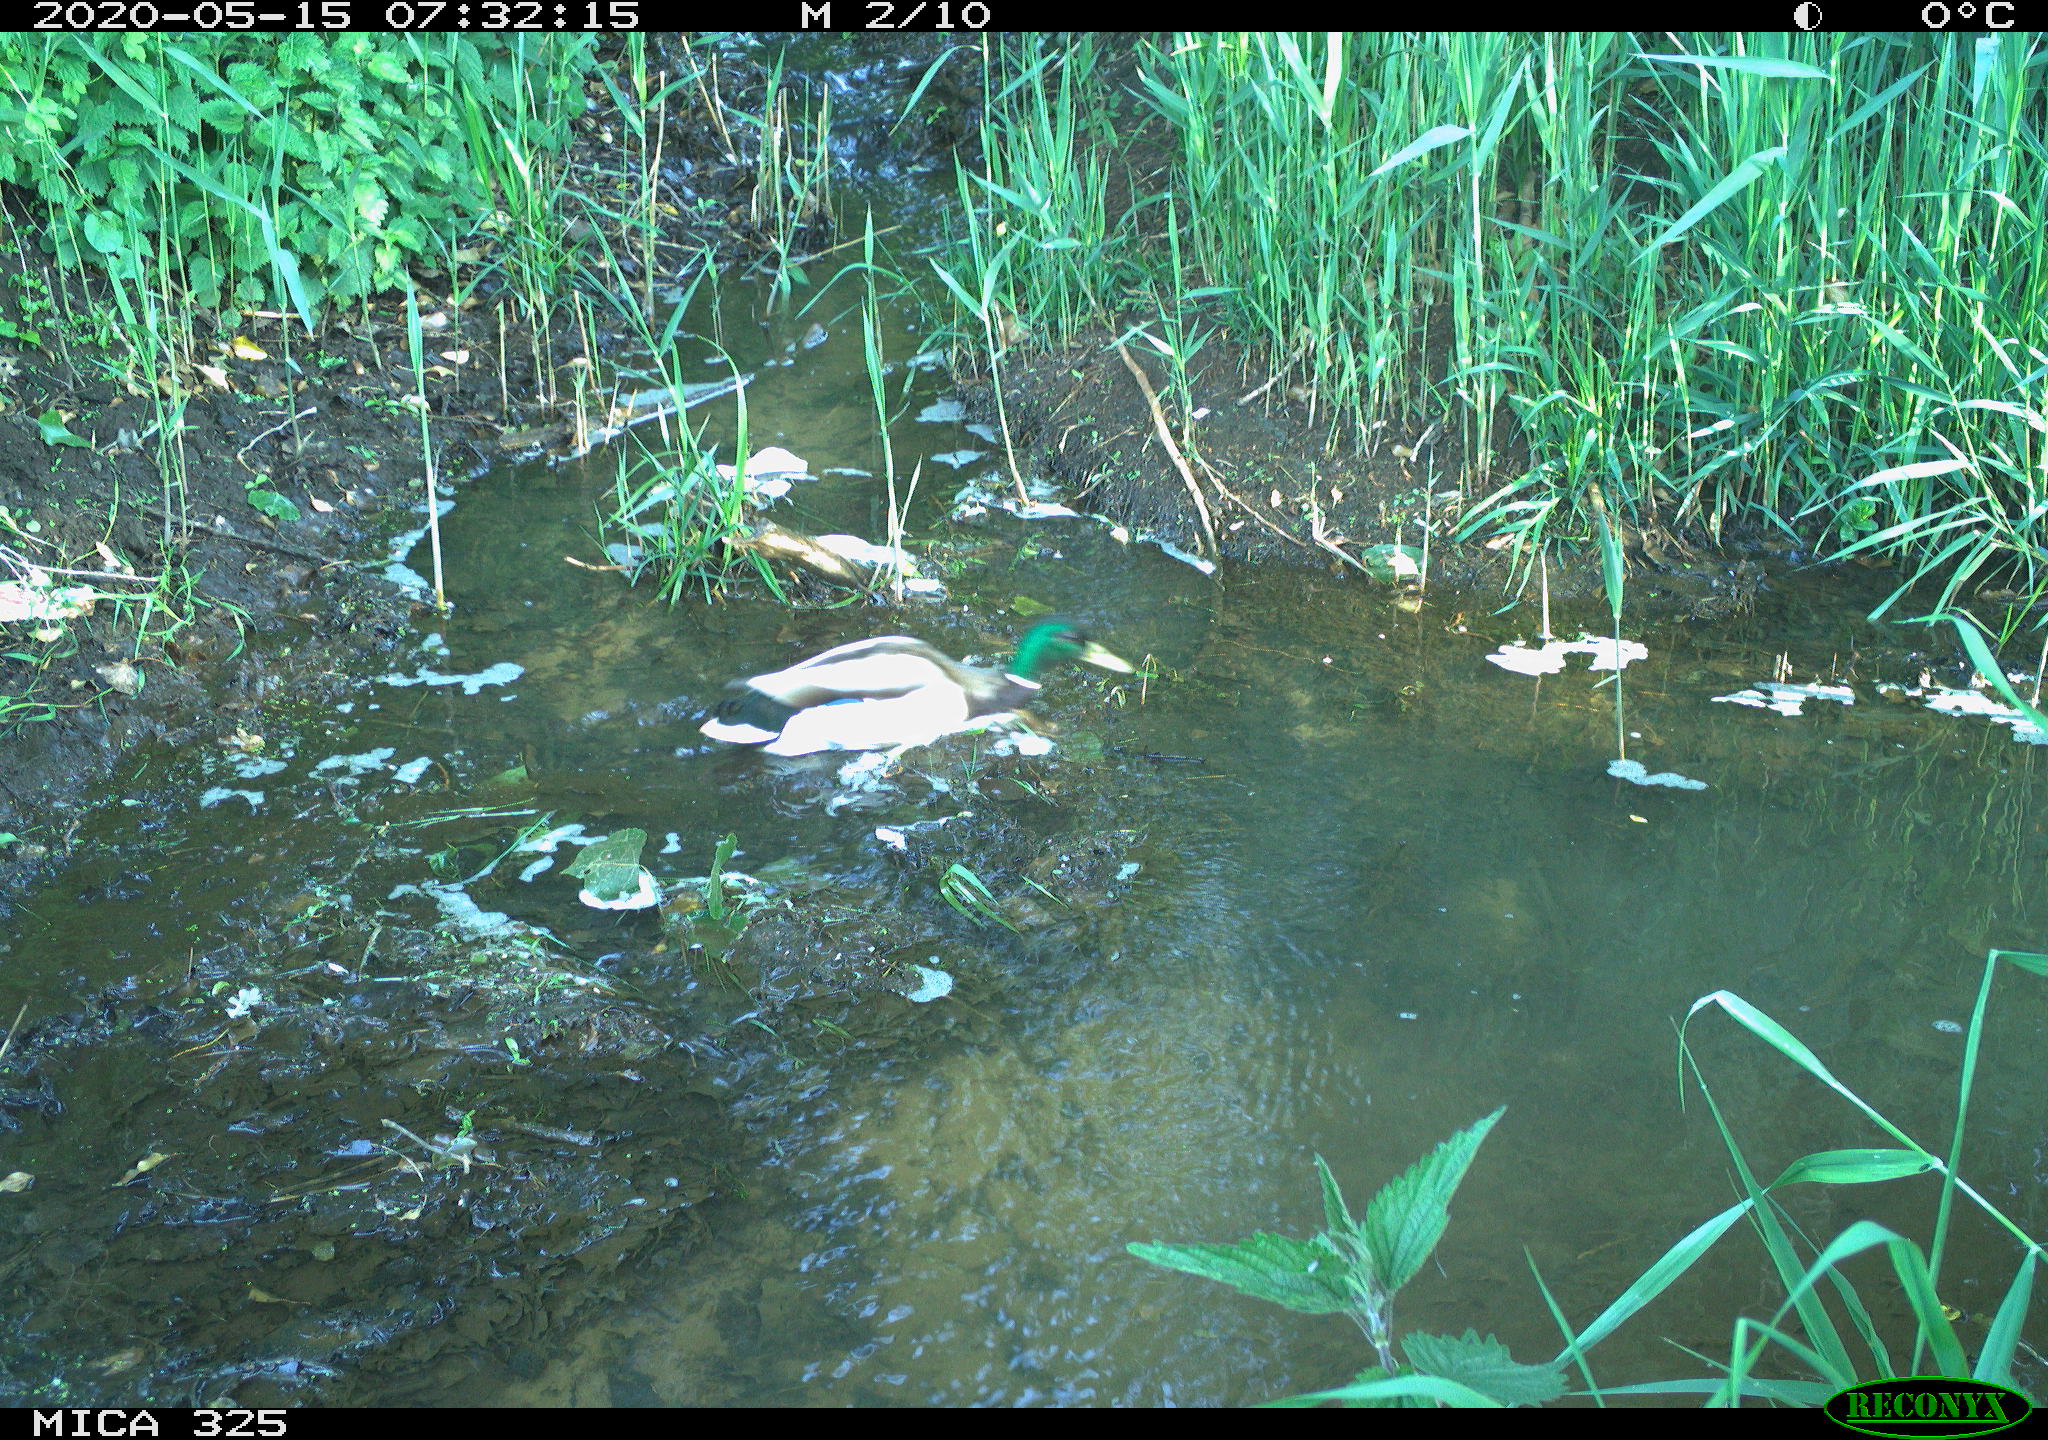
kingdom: Animalia
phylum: Chordata
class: Aves
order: Anseriformes
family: Anatidae
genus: Anas
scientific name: Anas platyrhynchos
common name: Mallard
